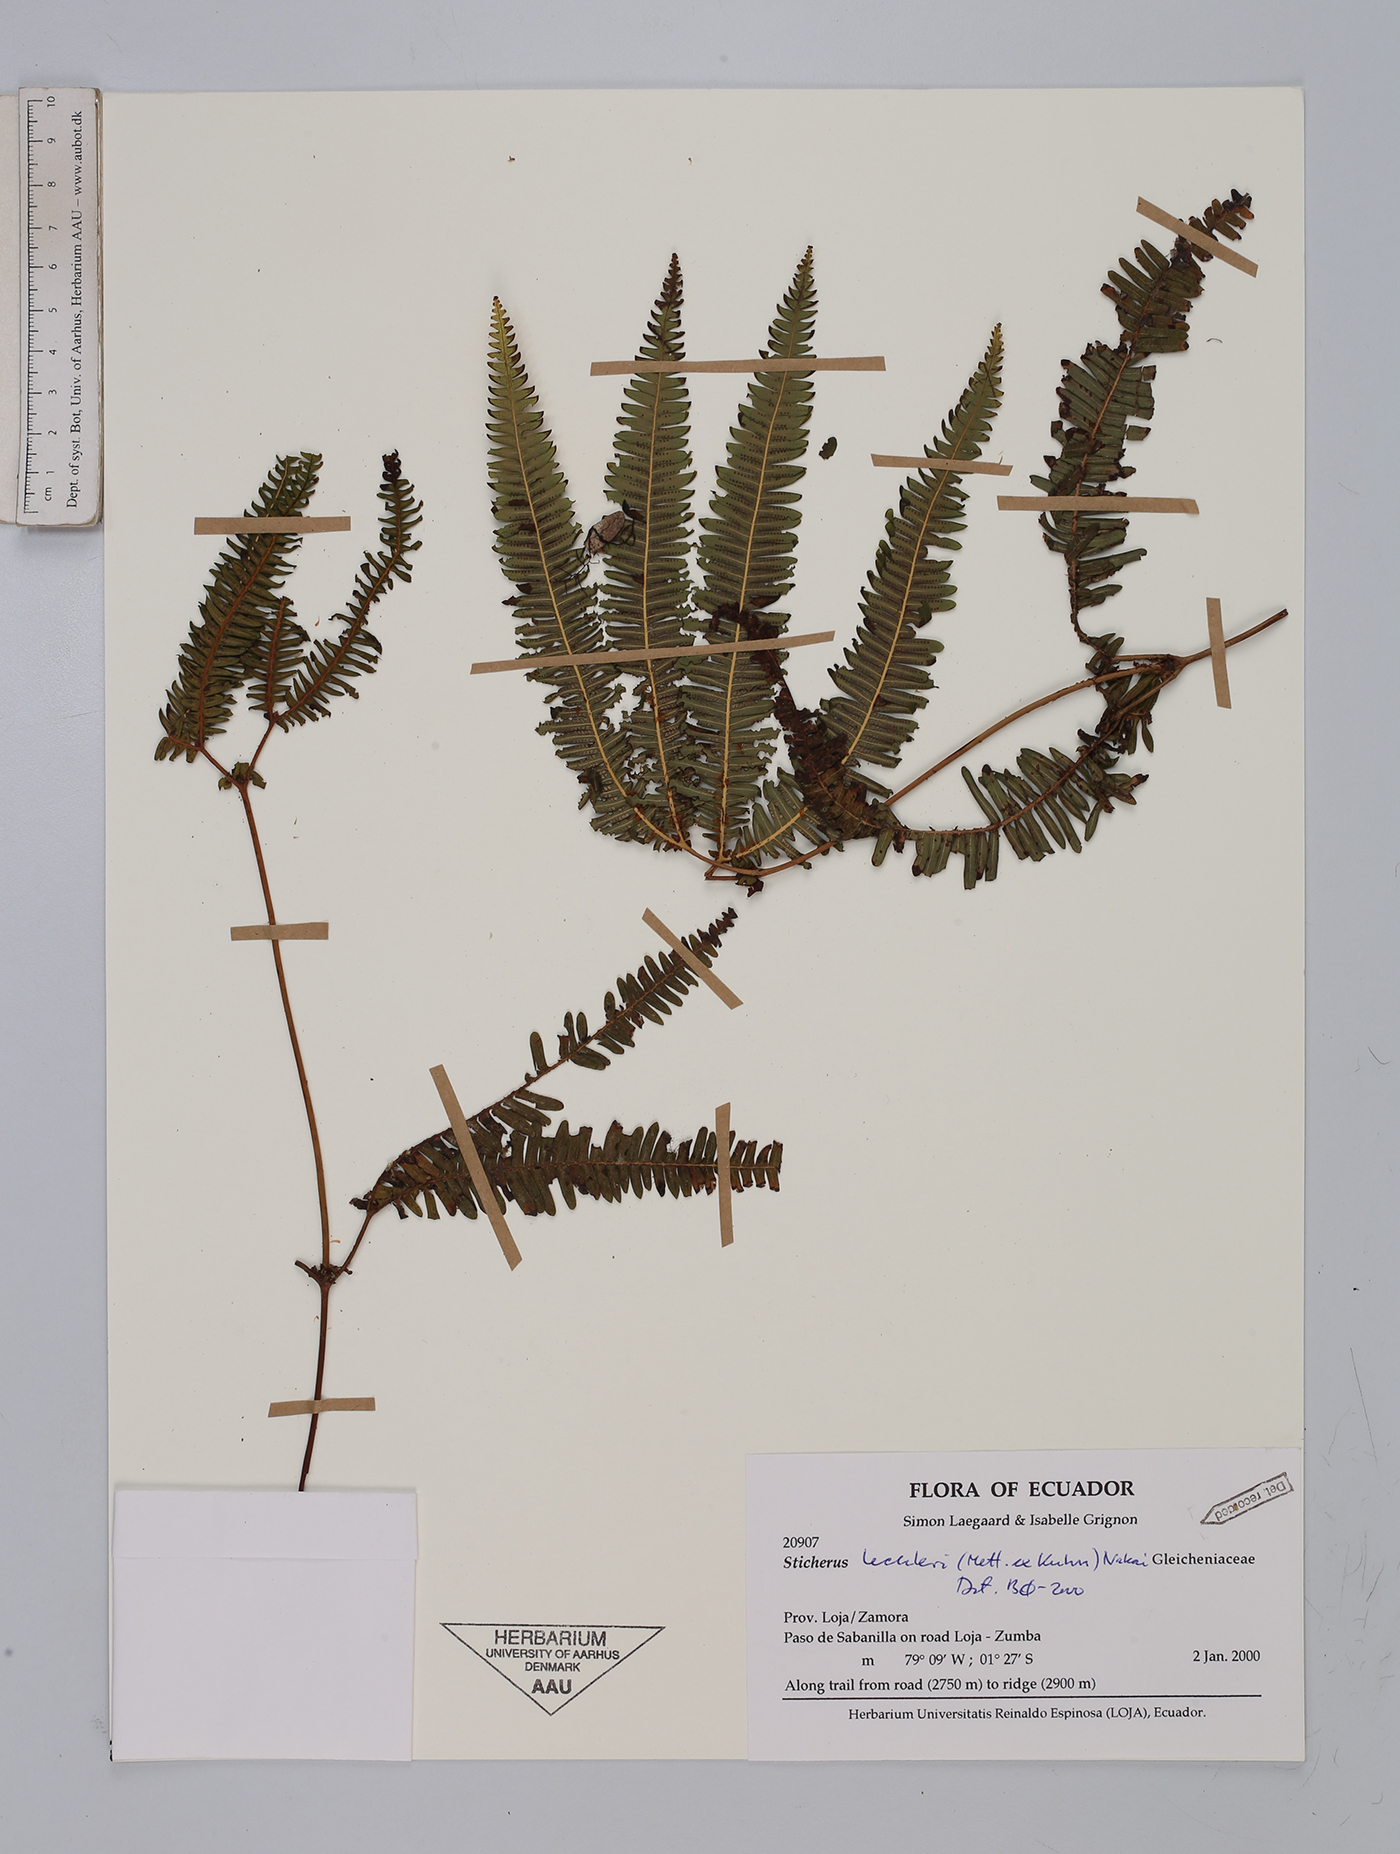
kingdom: Plantae
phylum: Tracheophyta
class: Polypodiopsida
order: Gleicheniales
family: Gleicheniaceae
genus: Sticherus
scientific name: Sticherus lechleri
